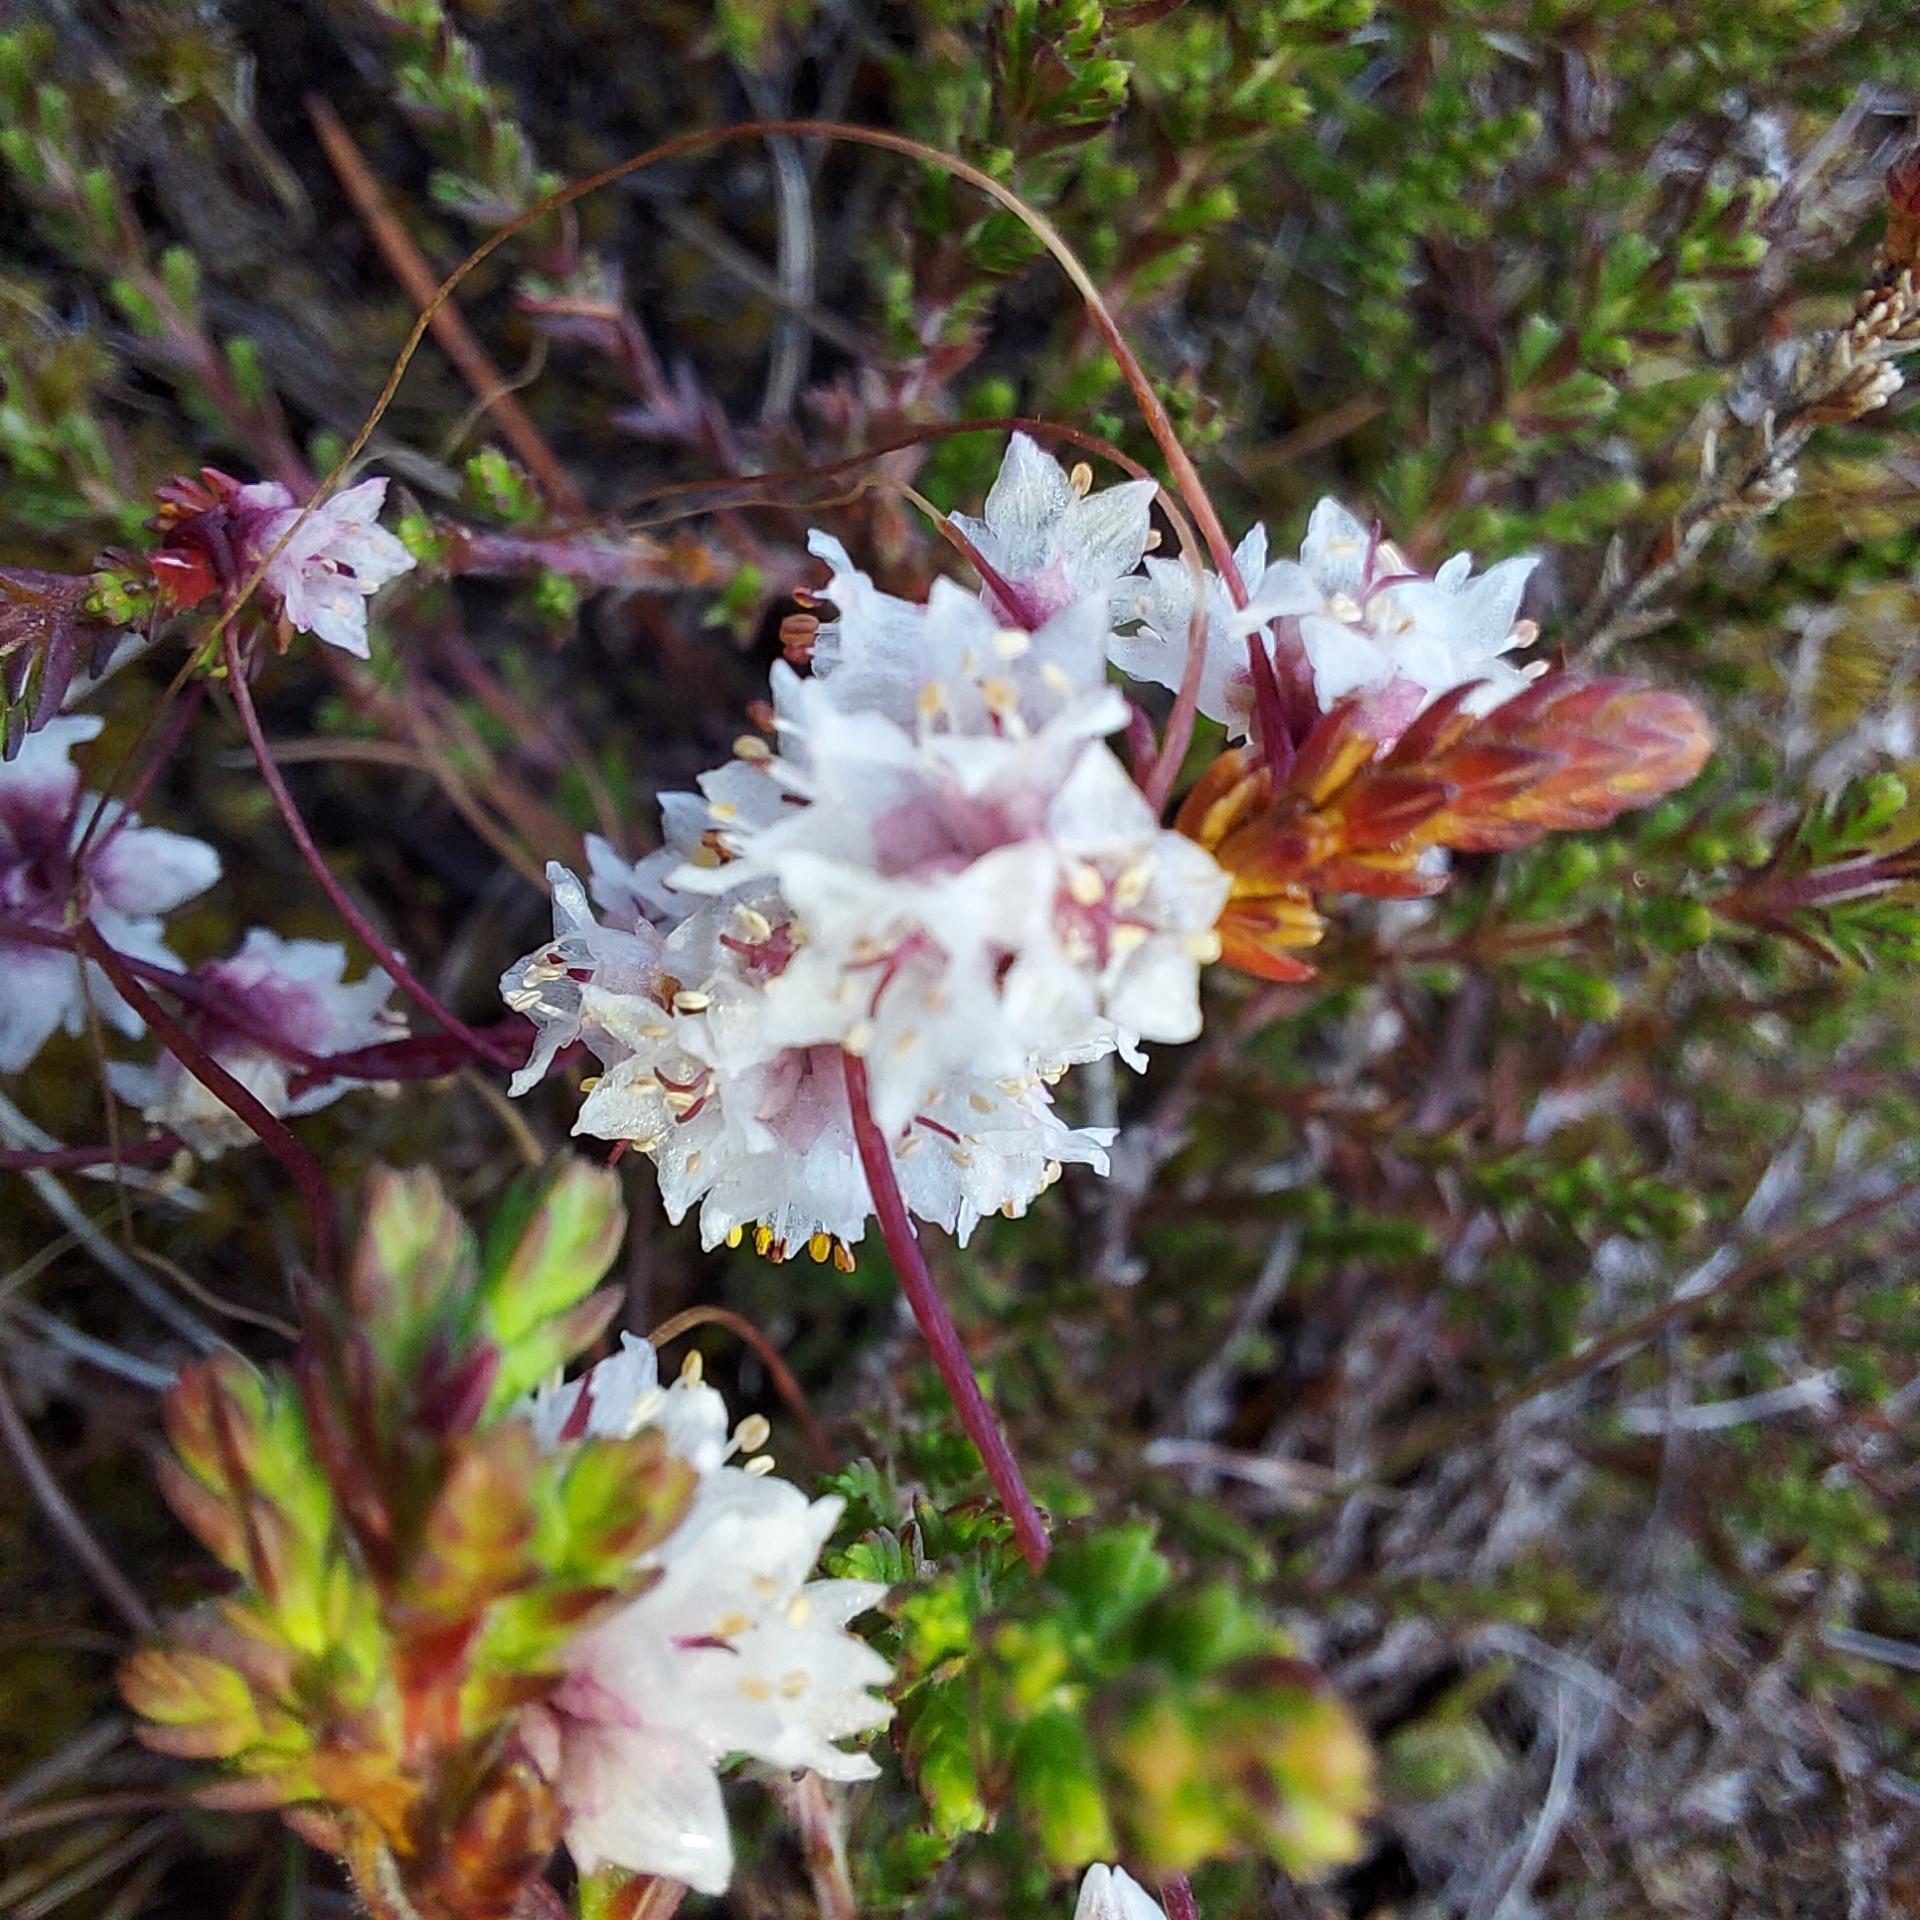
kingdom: Plantae
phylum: Tracheophyta
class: Magnoliopsida
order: Solanales
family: Convolvulaceae
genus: Cuscuta
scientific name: Cuscuta epithymum
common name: Lyng-silke
